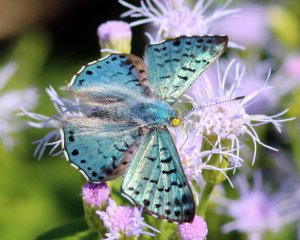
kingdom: Animalia
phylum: Arthropoda
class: Insecta
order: Lepidoptera
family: Riodinidae
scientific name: Riodinidae
